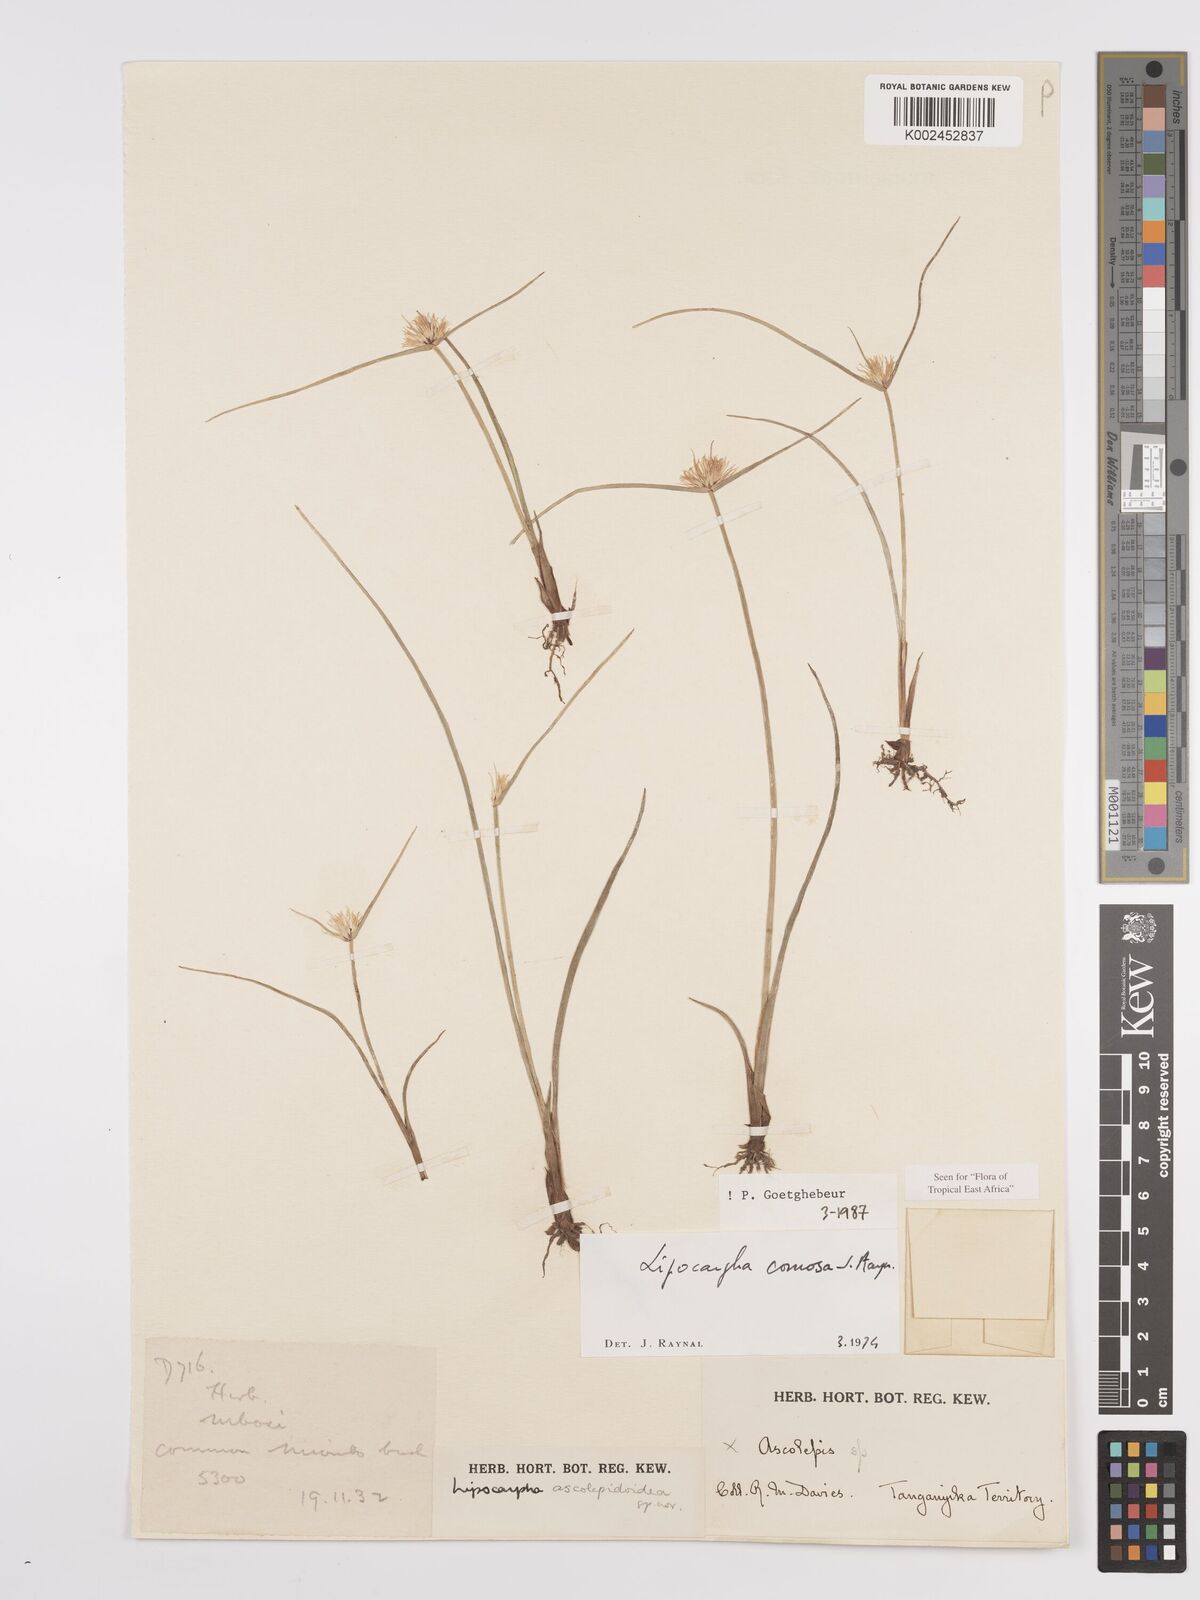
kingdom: Plantae
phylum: Tracheophyta
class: Liliopsida
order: Poales
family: Cyperaceae
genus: Cyperus
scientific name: Cyperus
